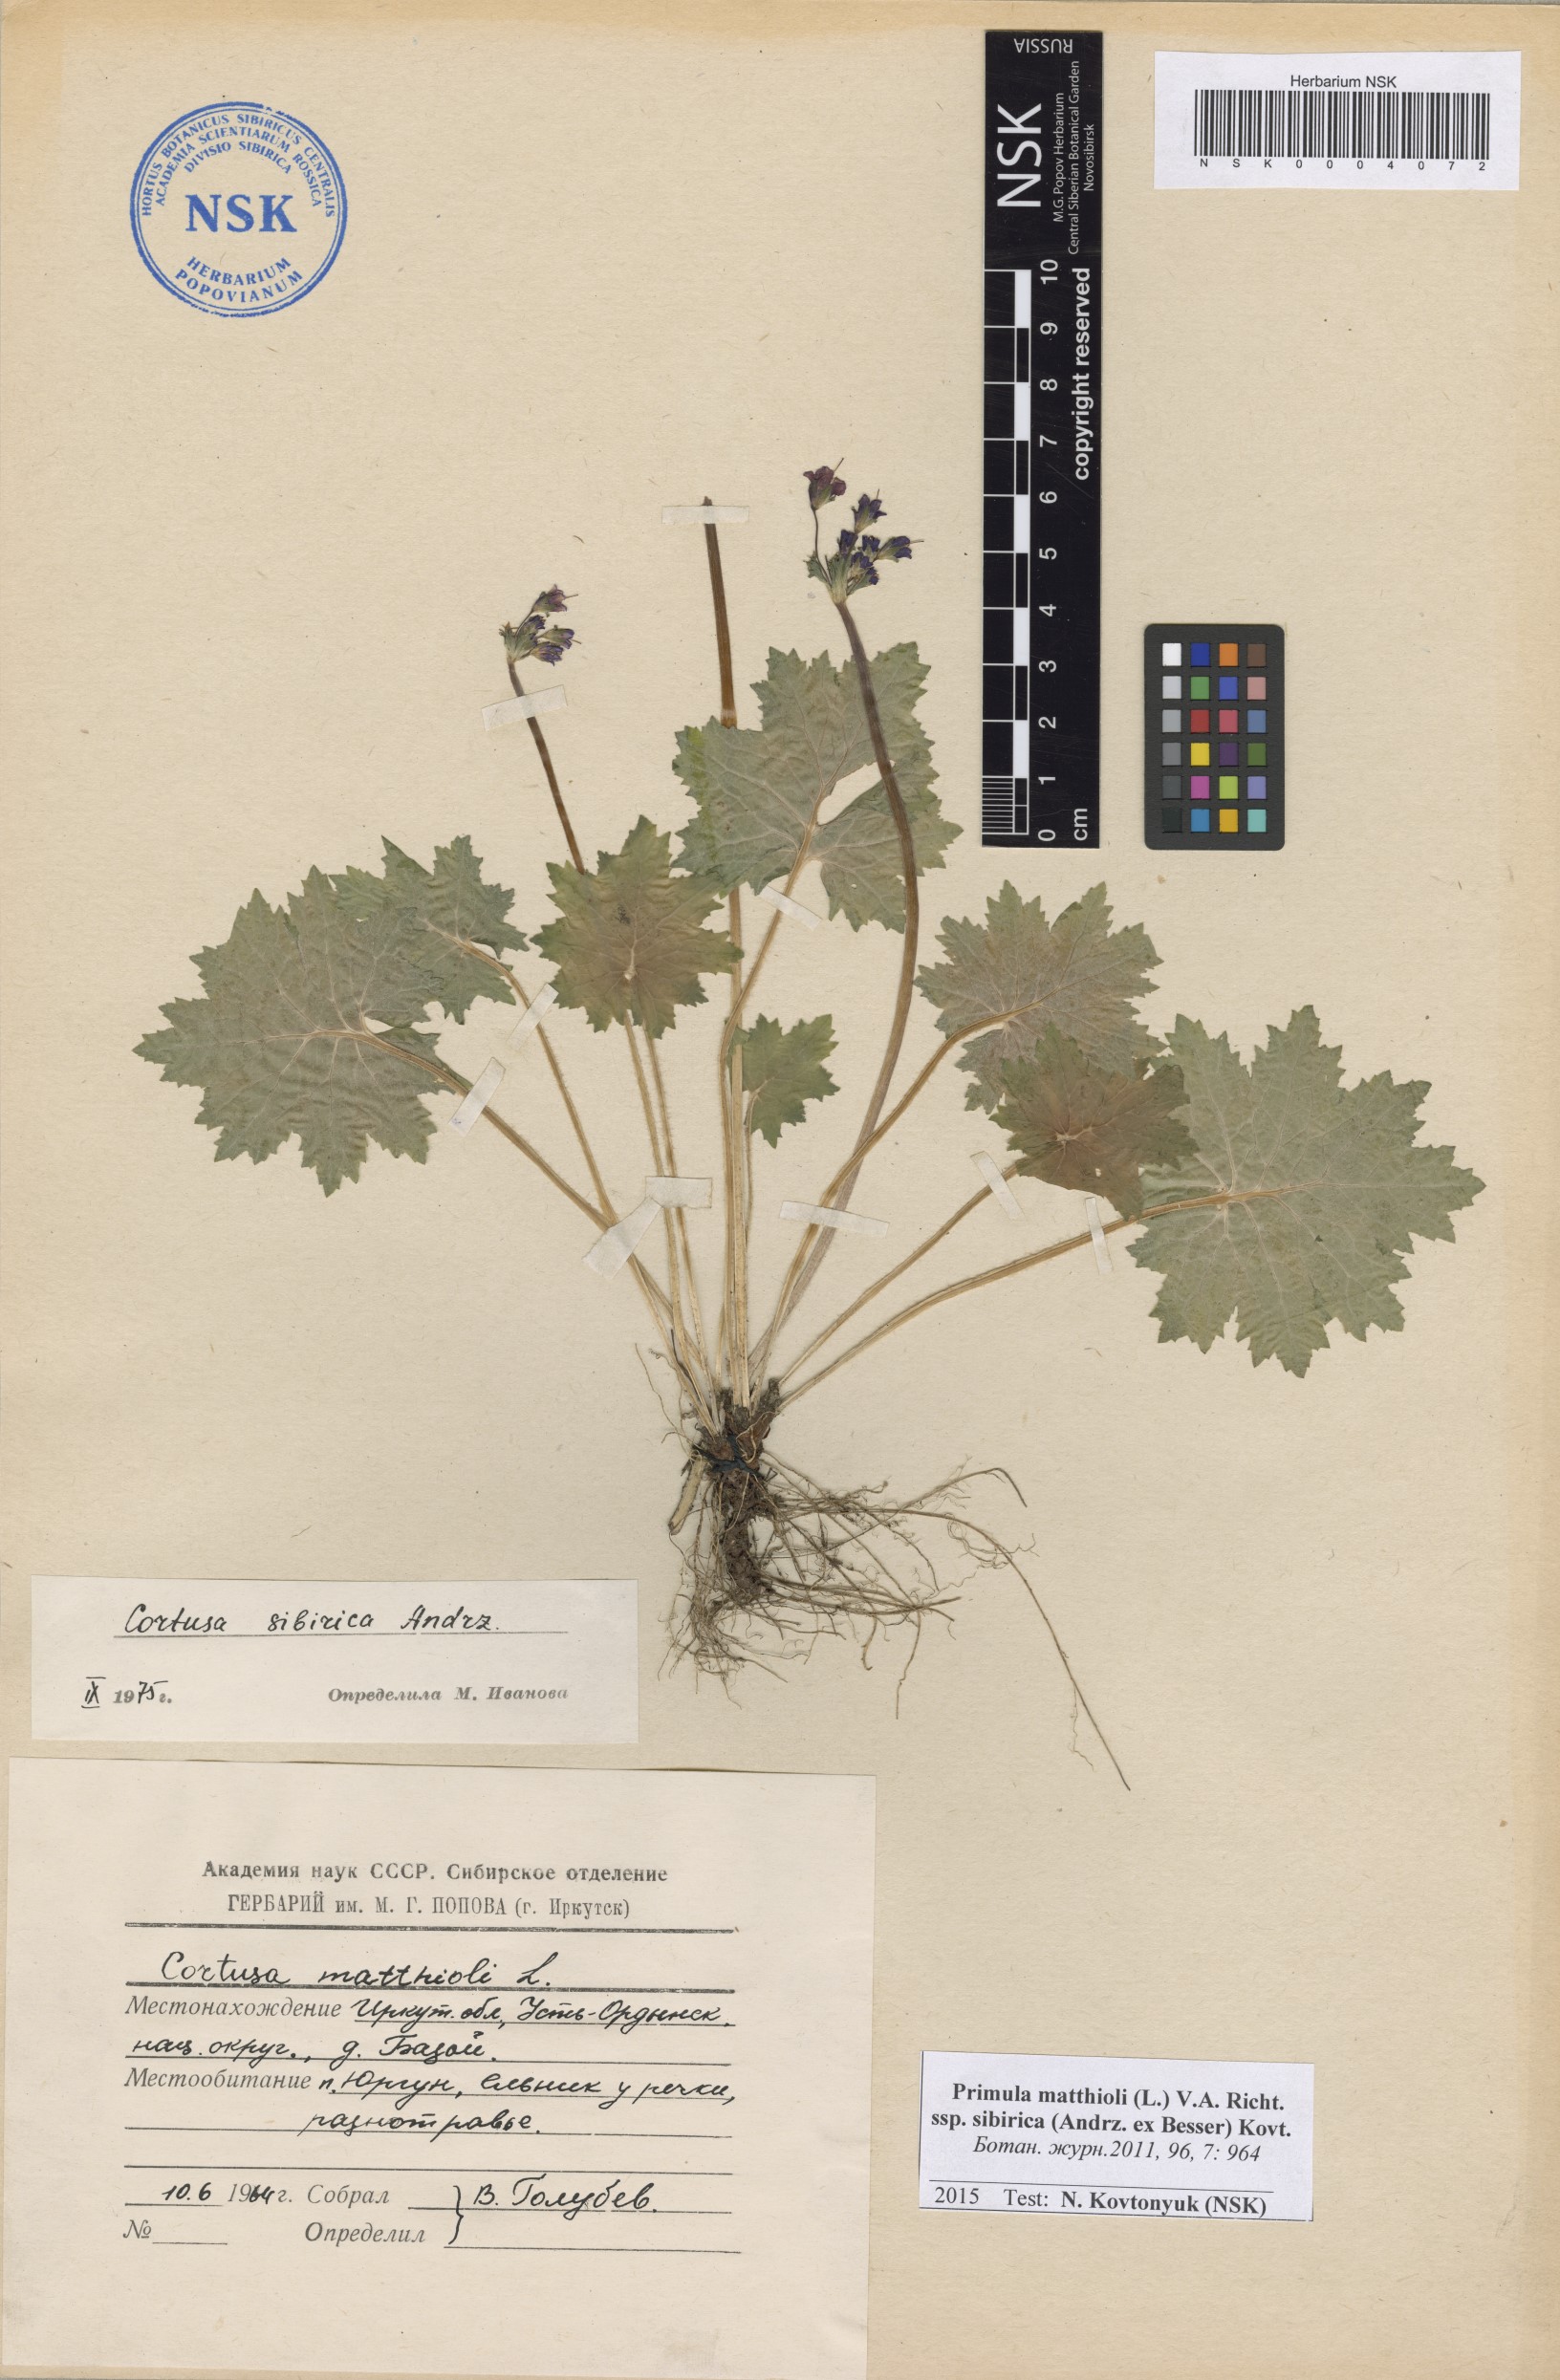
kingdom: Plantae
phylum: Tracheophyta
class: Magnoliopsida
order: Ericales
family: Primulaceae
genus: Primula
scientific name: Primula matthioli
